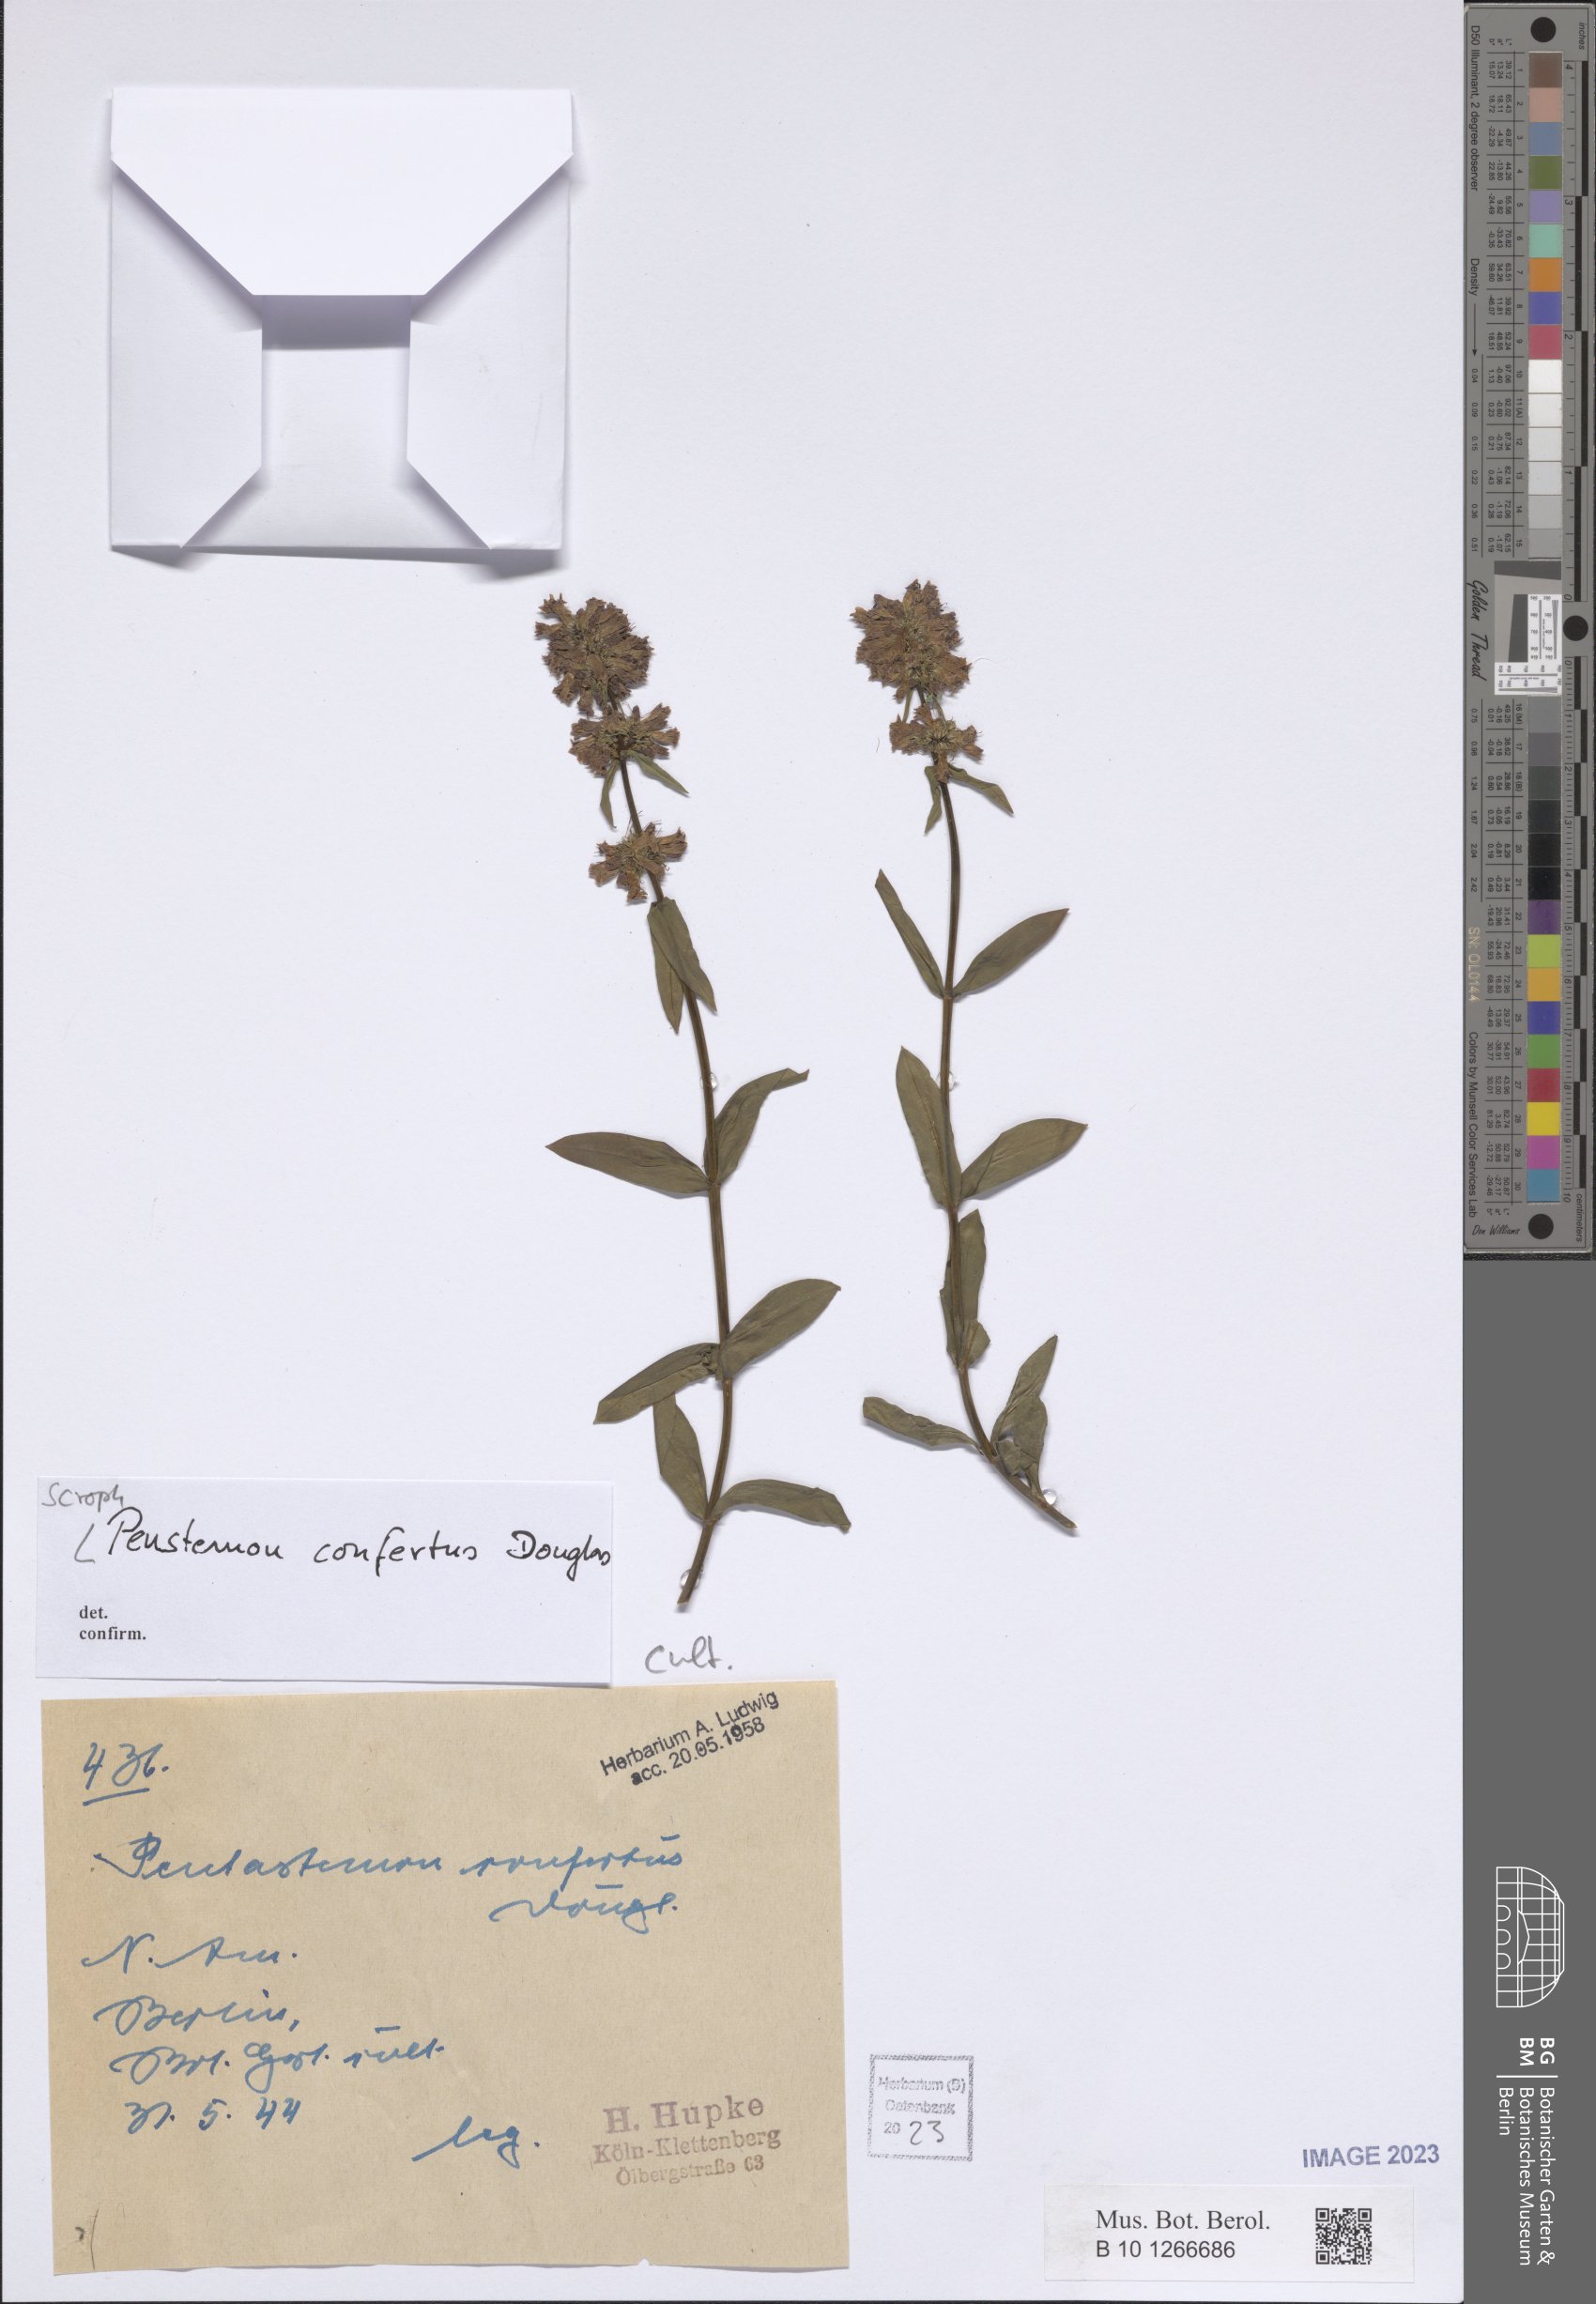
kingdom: Plantae
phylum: Tracheophyta
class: Magnoliopsida
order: Lamiales
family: Plantaginaceae
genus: Penstemon
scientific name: Penstemon confertus
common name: Lesser yellow beardtongue
